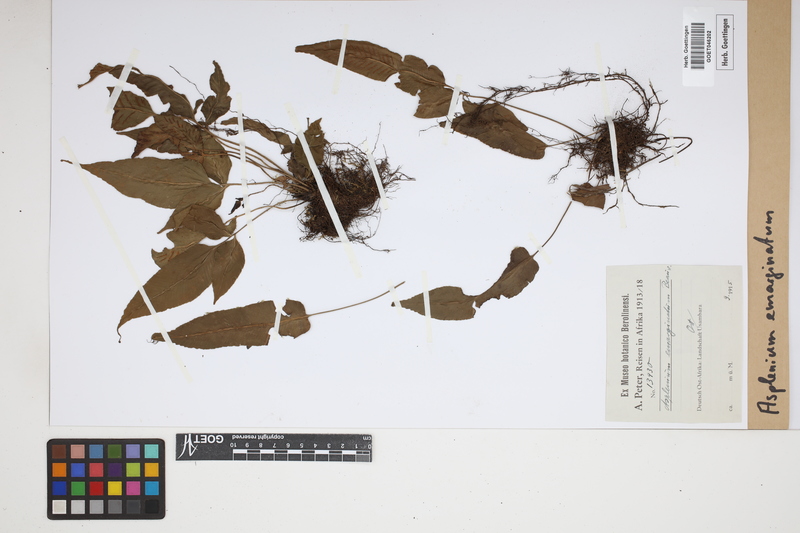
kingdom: Plantae
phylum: Tracheophyta
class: Polypodiopsida
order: Polypodiales
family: Aspleniaceae
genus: Asplenium
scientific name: Asplenium emarginatum
